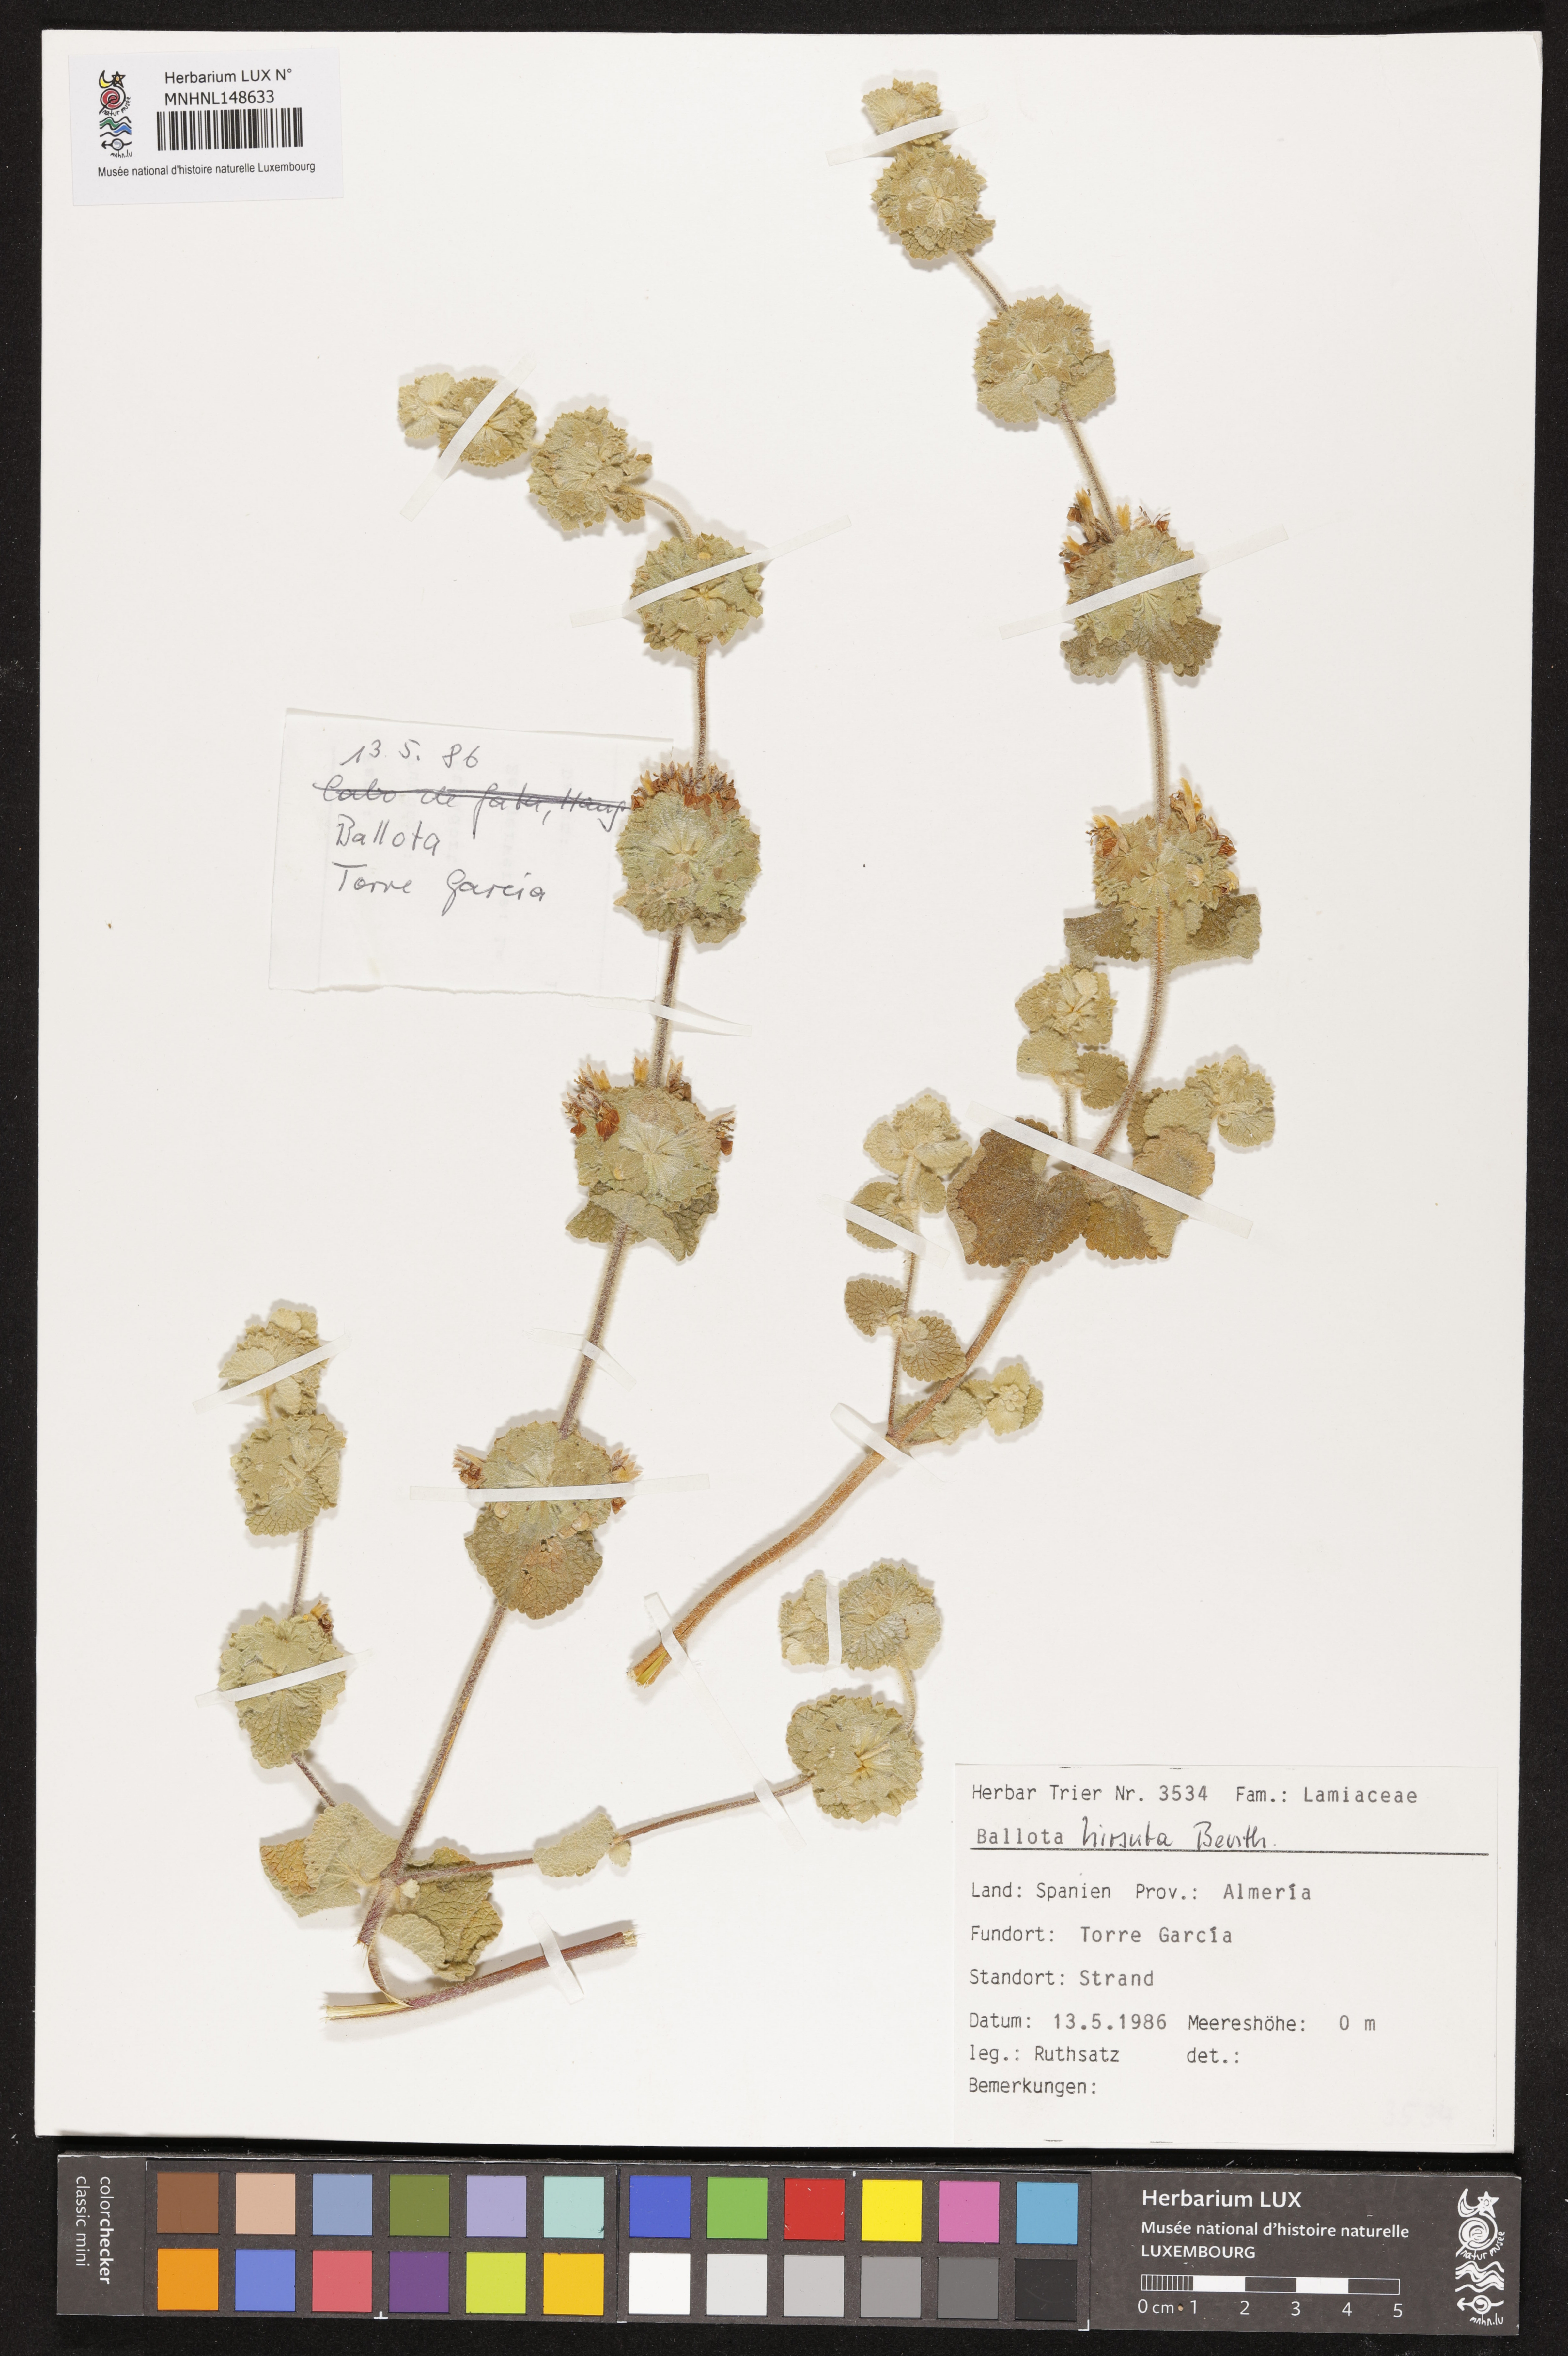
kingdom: Plantae
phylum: Tracheophyta
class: Magnoliopsida
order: Lamiales
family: Lamiaceae
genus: Pseudodictamnus
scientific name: Pseudodictamnus hirsutus
